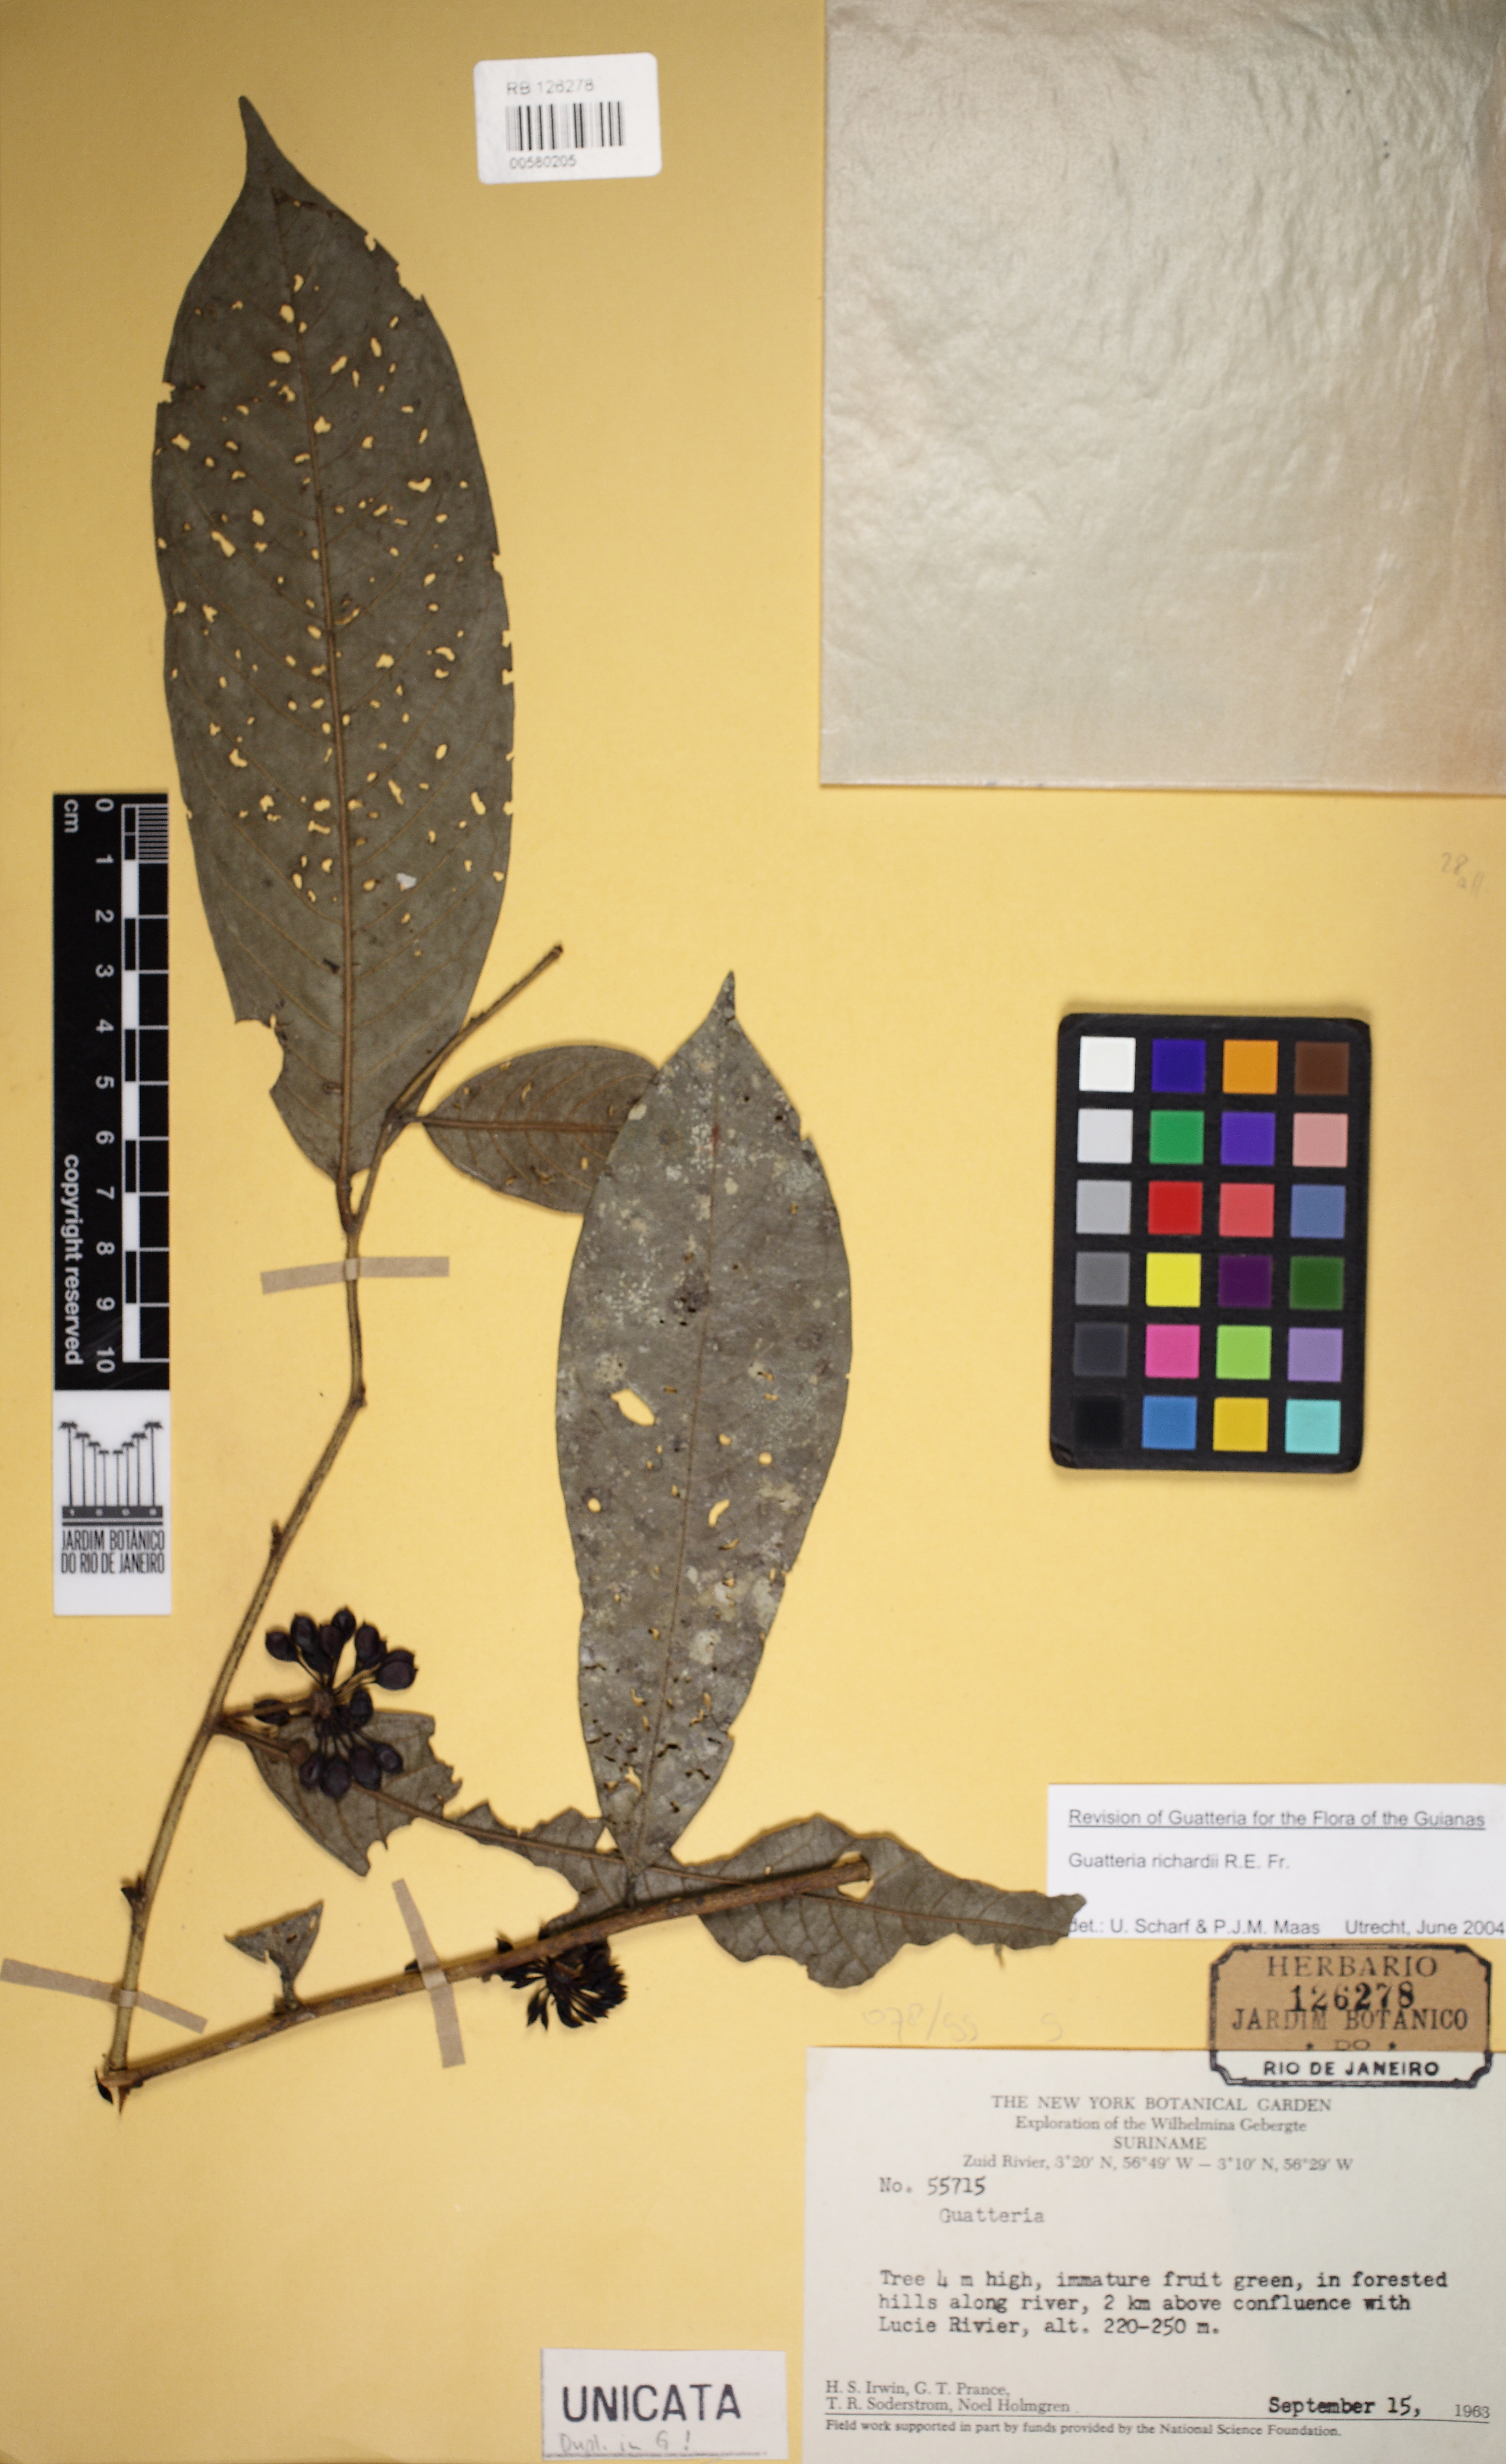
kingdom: Plantae
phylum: Tracheophyta
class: Magnoliopsida
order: Magnoliales
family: Annonaceae
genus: Guatteria
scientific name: Guatteria richardii
